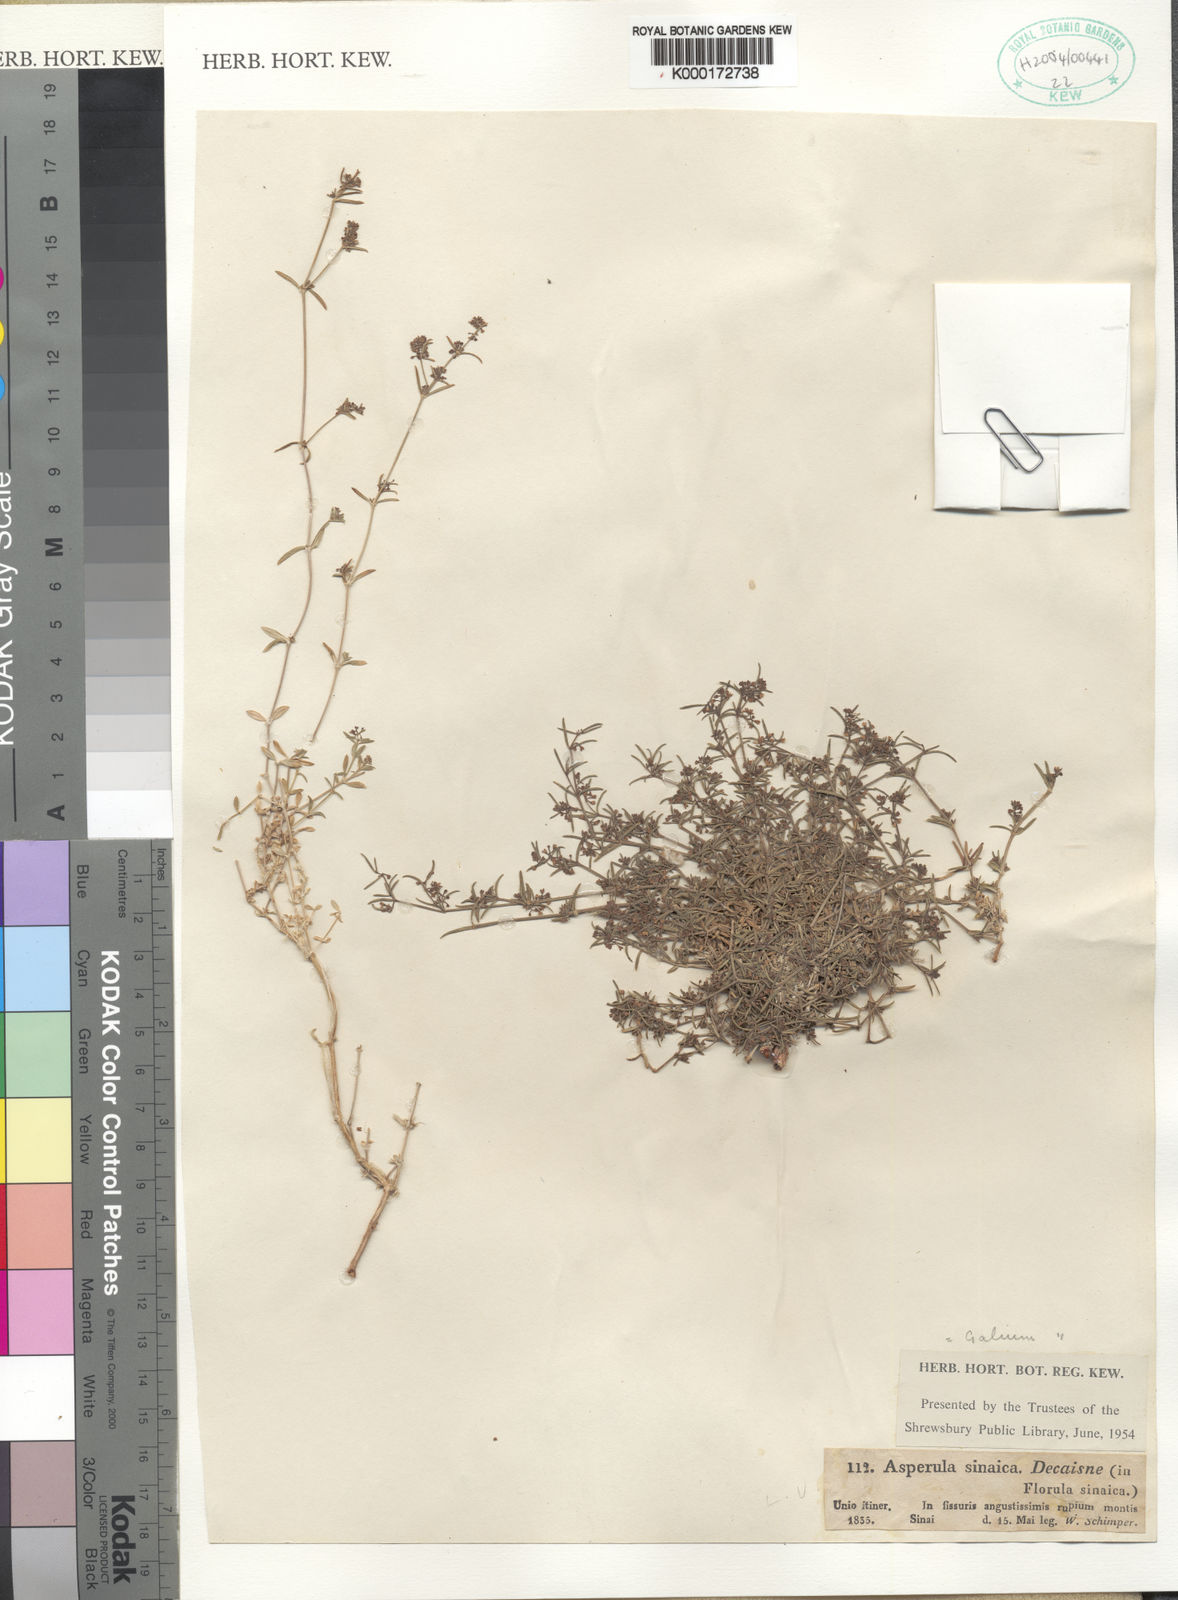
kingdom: Plantae
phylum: Tracheophyta
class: Magnoliopsida
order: Gentianales
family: Rubiaceae
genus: Galium
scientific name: Galium sinaicum
